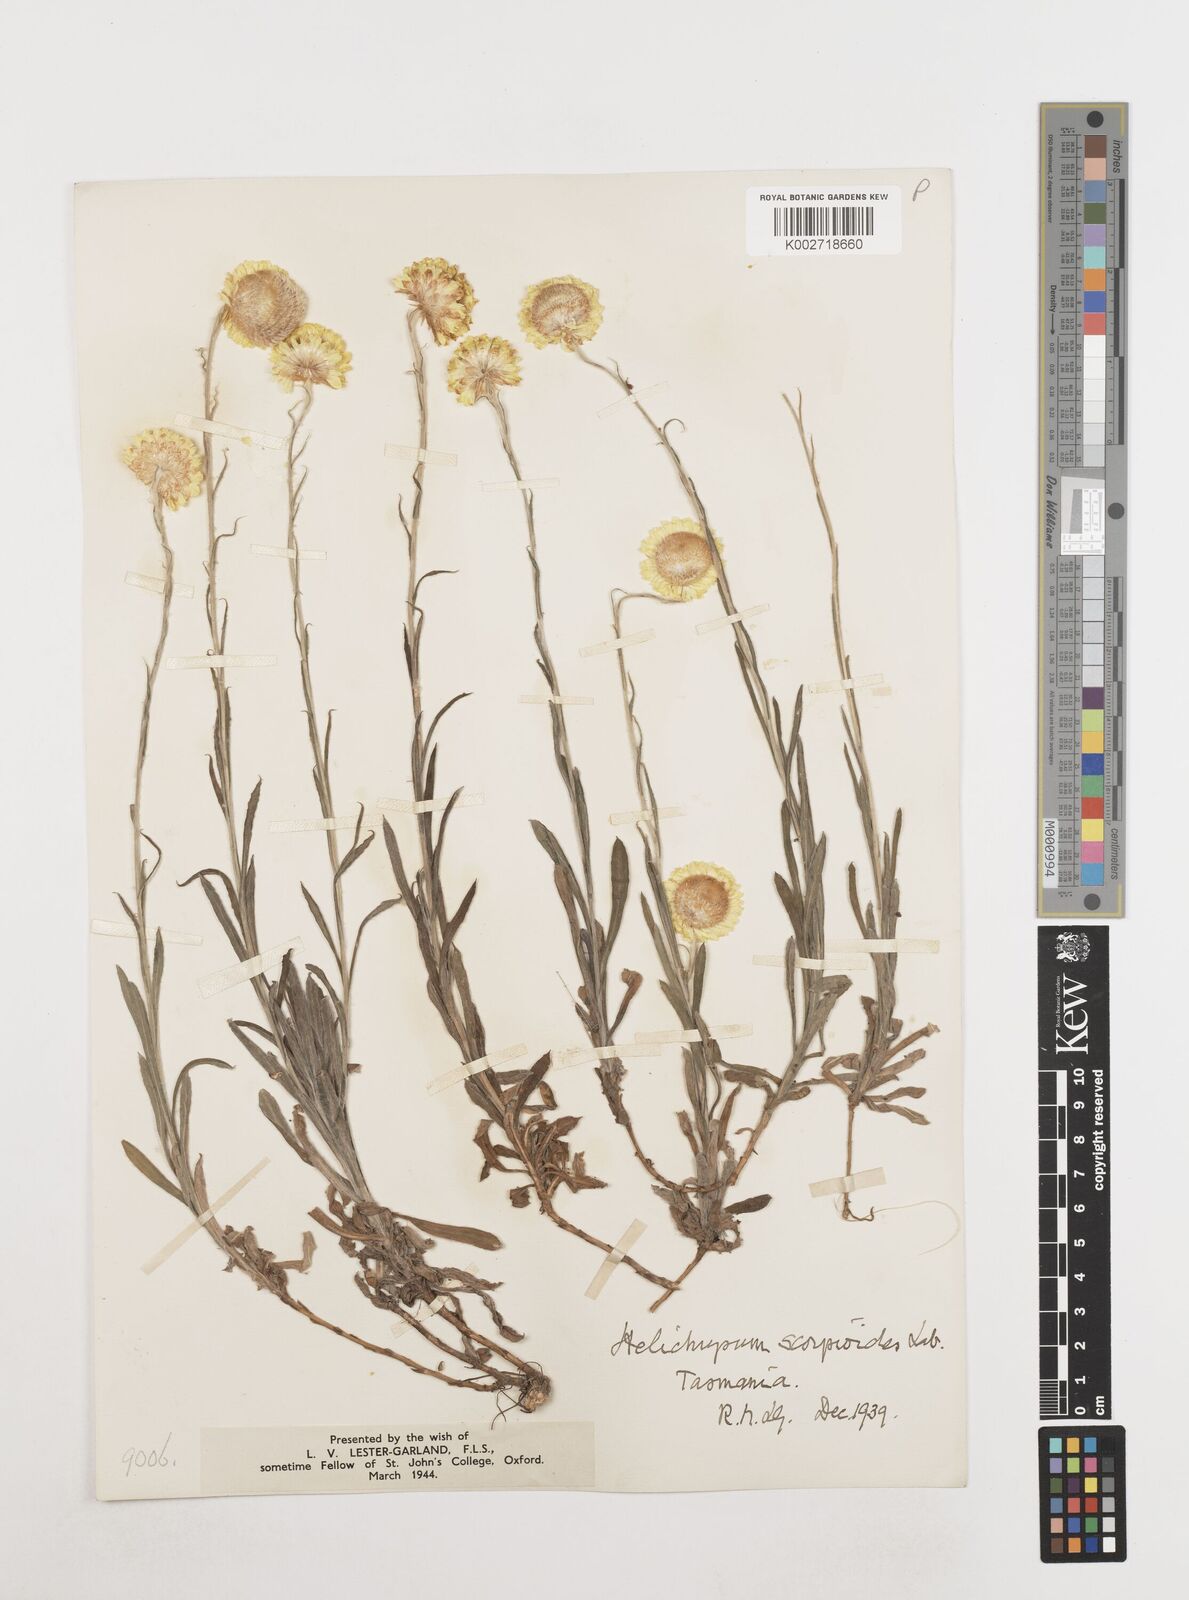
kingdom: Plantae
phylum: Tracheophyta
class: Magnoliopsida
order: Asterales
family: Asteraceae
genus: Coronidium
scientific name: Coronidium scorpioides
